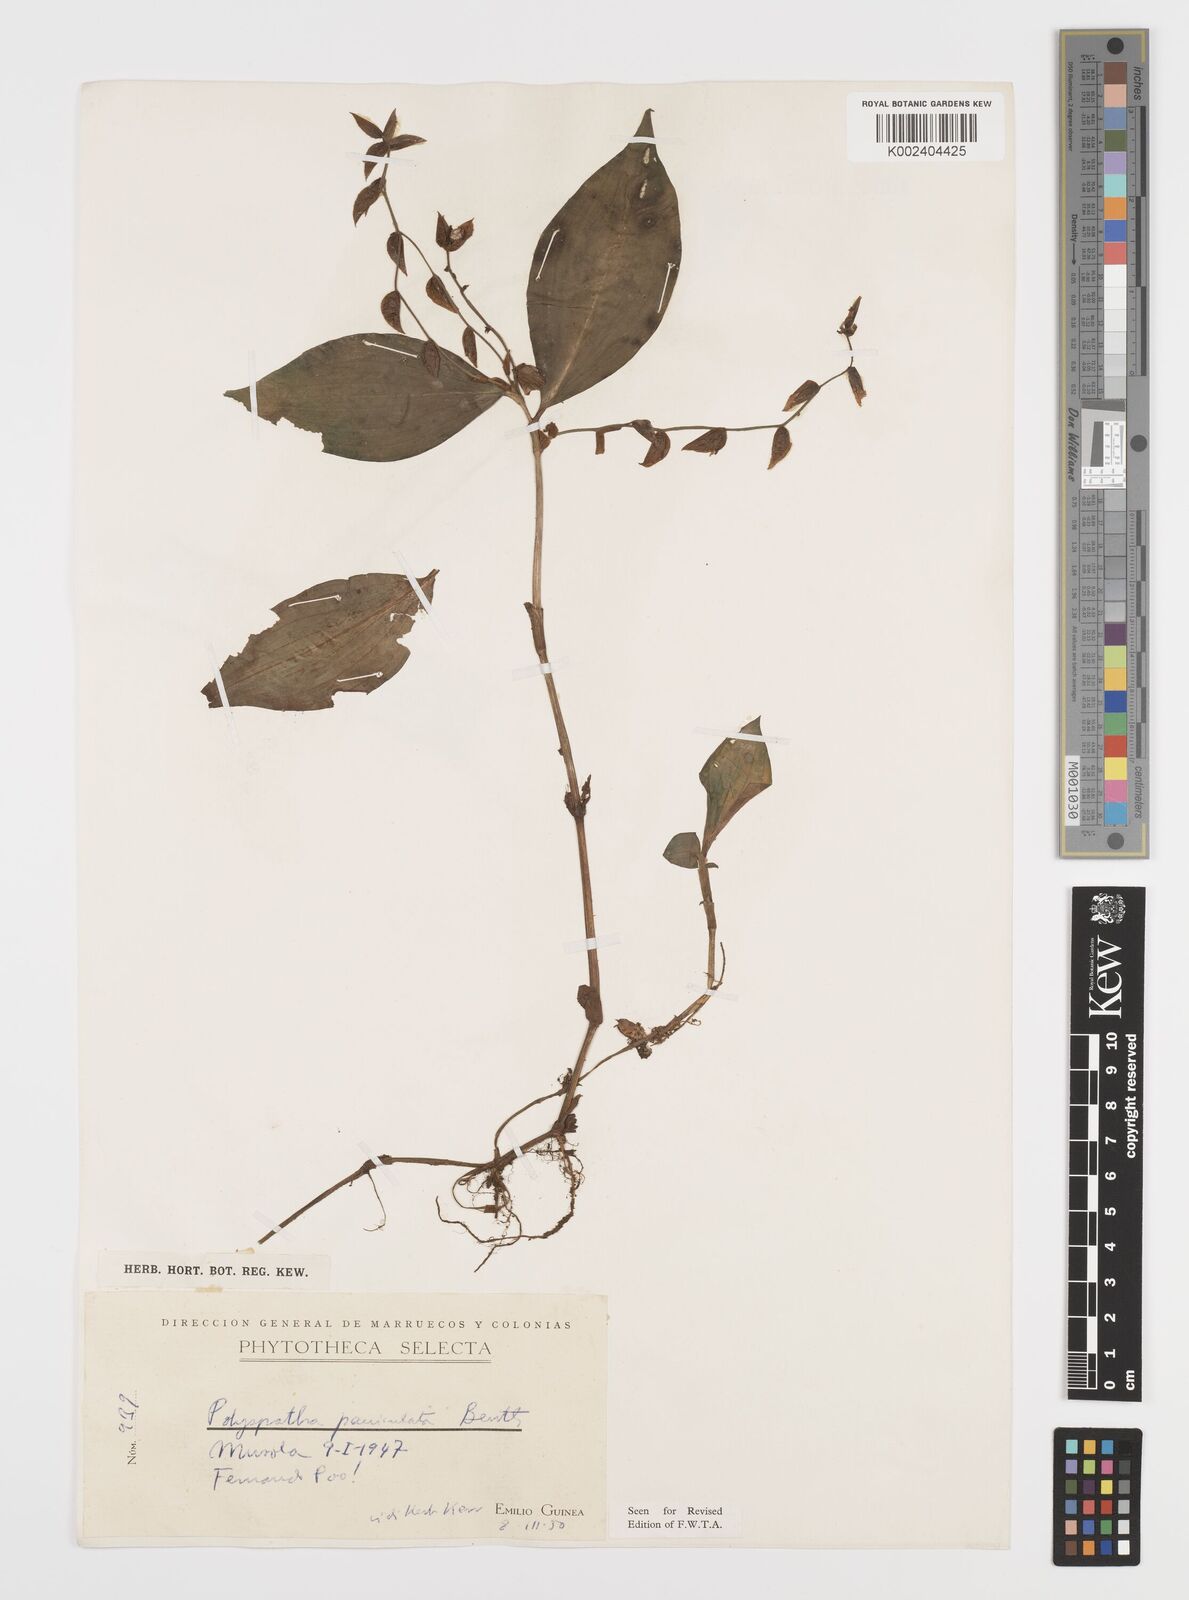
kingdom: Plantae
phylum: Tracheophyta
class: Liliopsida
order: Commelinales
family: Commelinaceae
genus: Polyspatha
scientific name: Polyspatha paniculata
